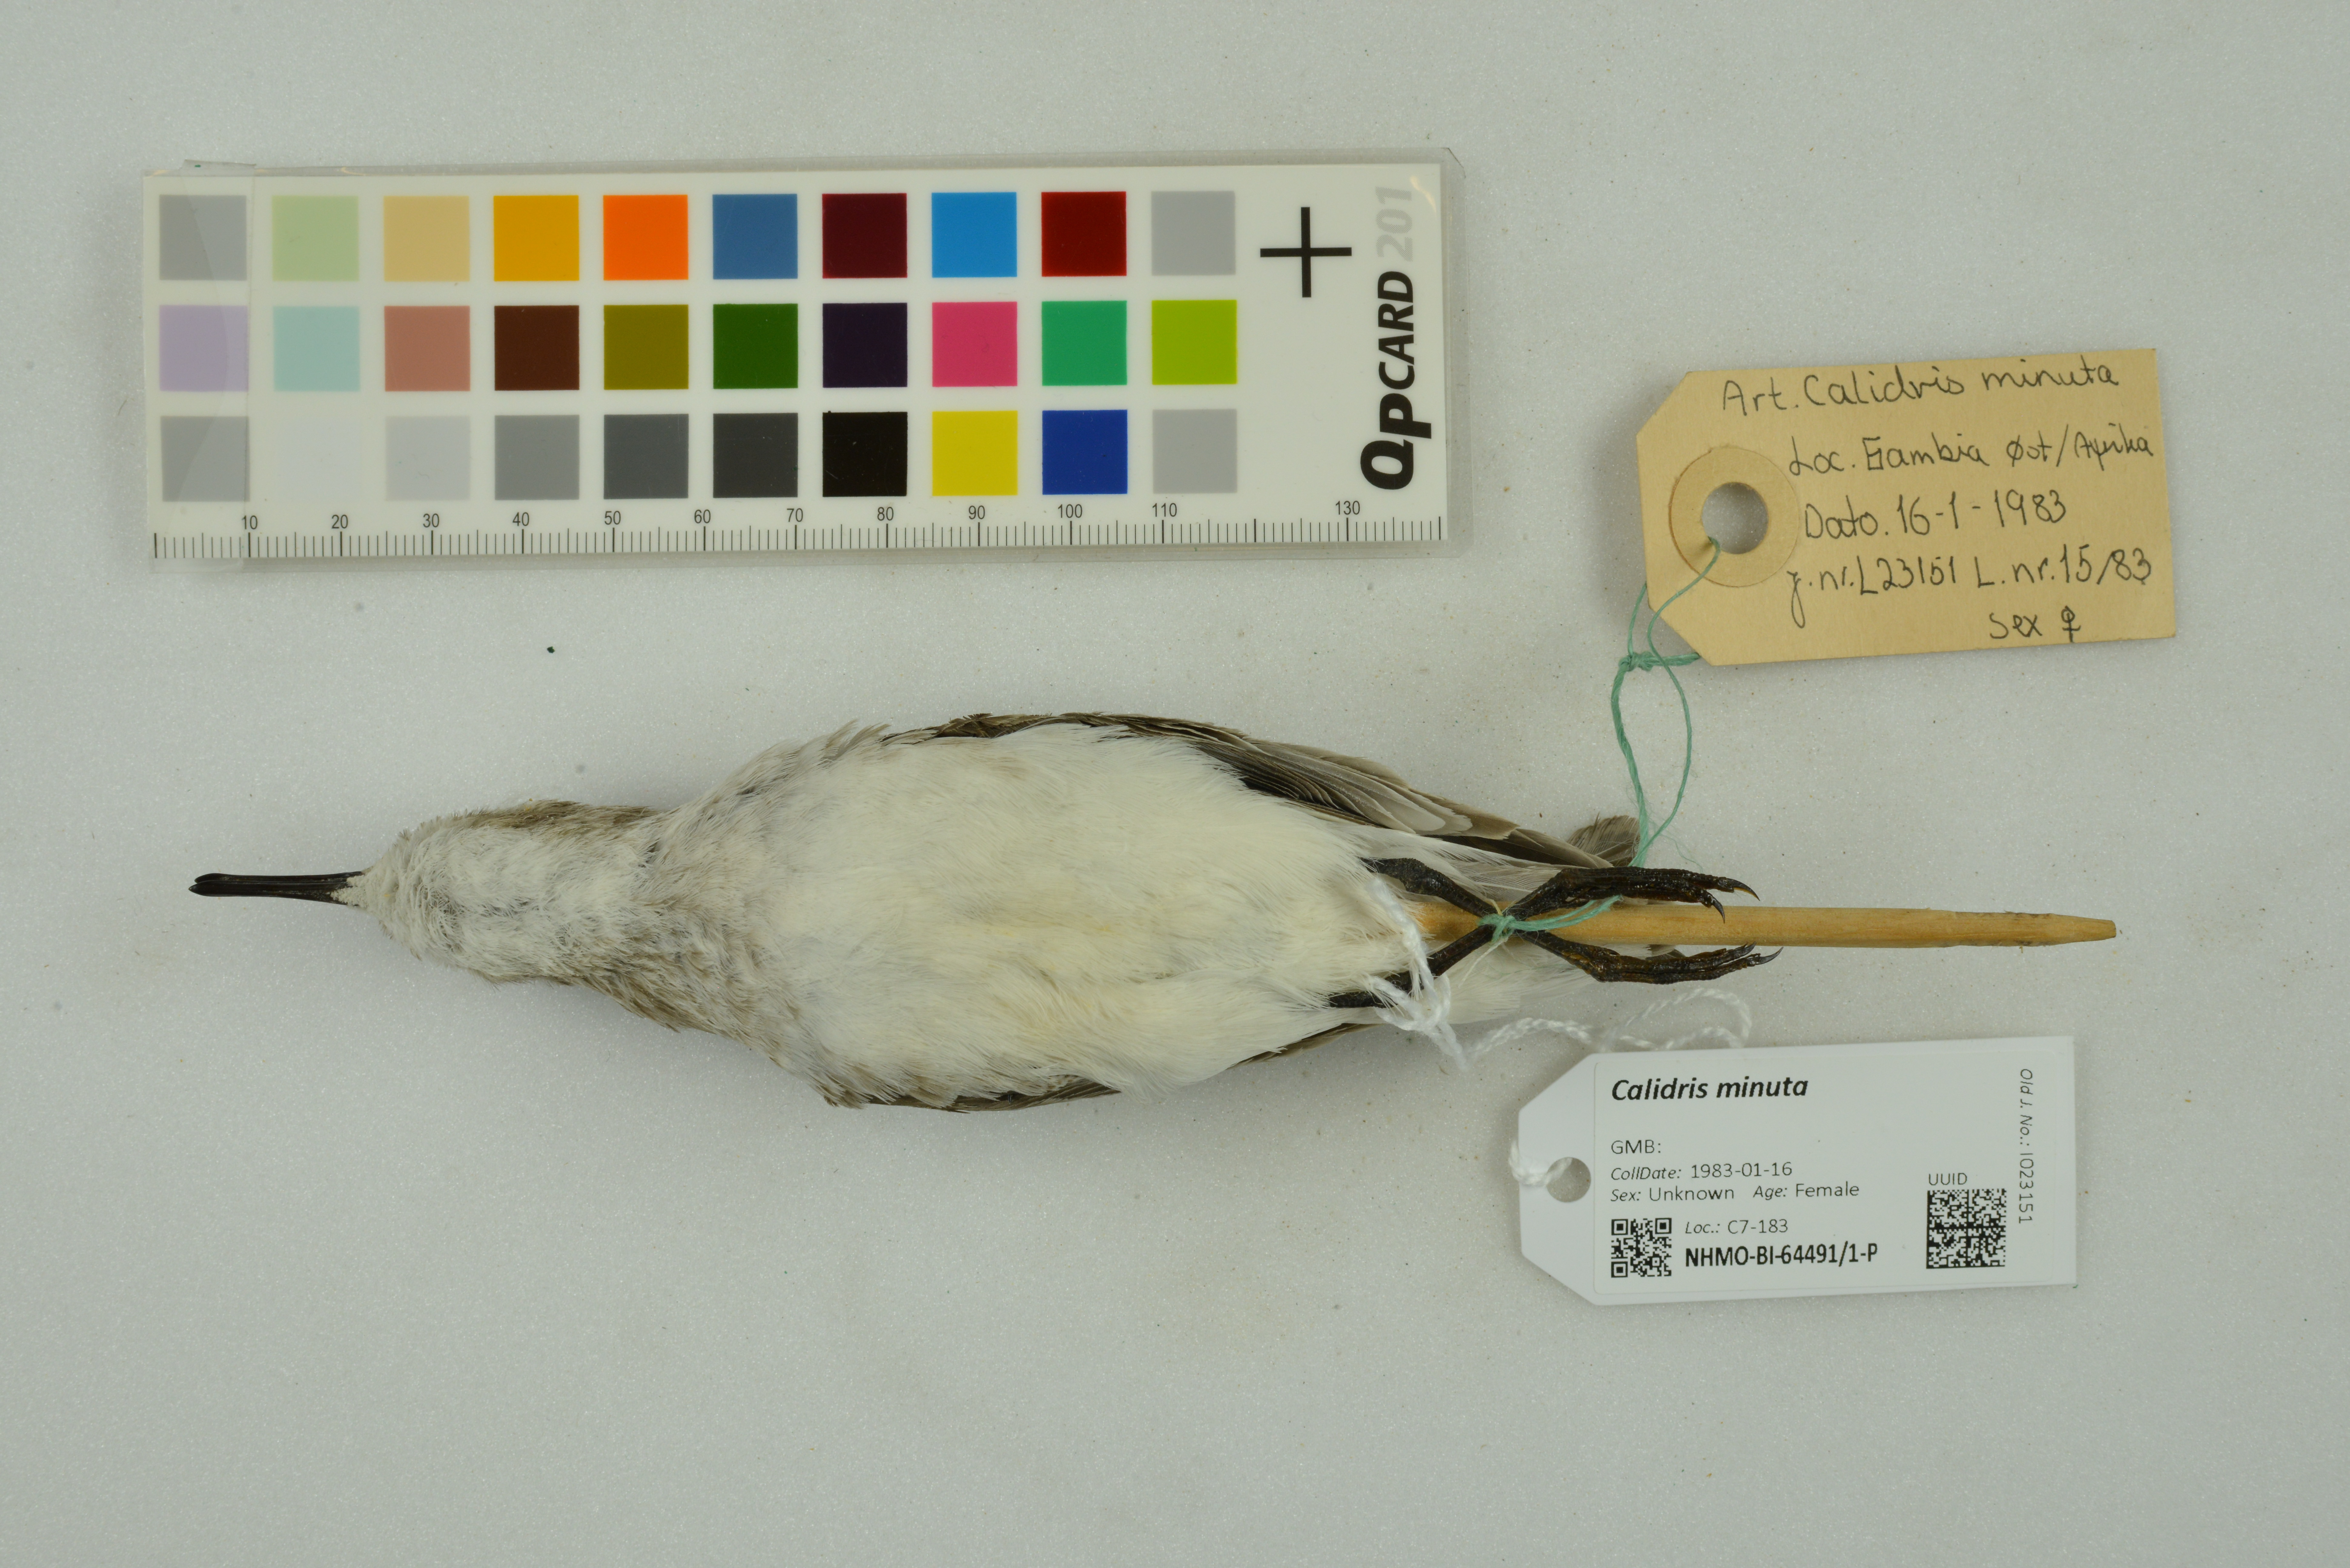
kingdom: Animalia
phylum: Chordata
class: Aves
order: Charadriiformes
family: Scolopacidae
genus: Calidris
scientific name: Calidris minuta
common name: Little stint
